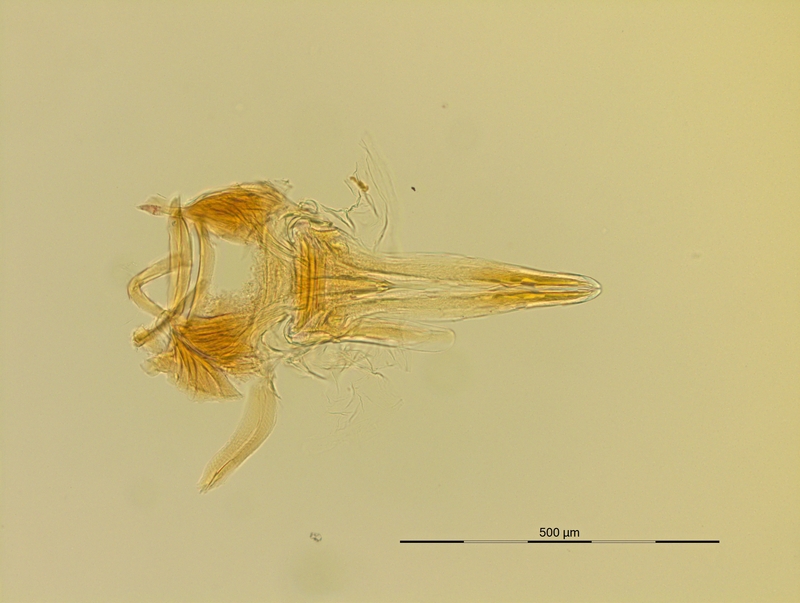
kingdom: Animalia
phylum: Arthropoda
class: Diplopoda
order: Julida
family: Blaniulidae
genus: Nopoiulus
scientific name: Nopoiulus kochii
